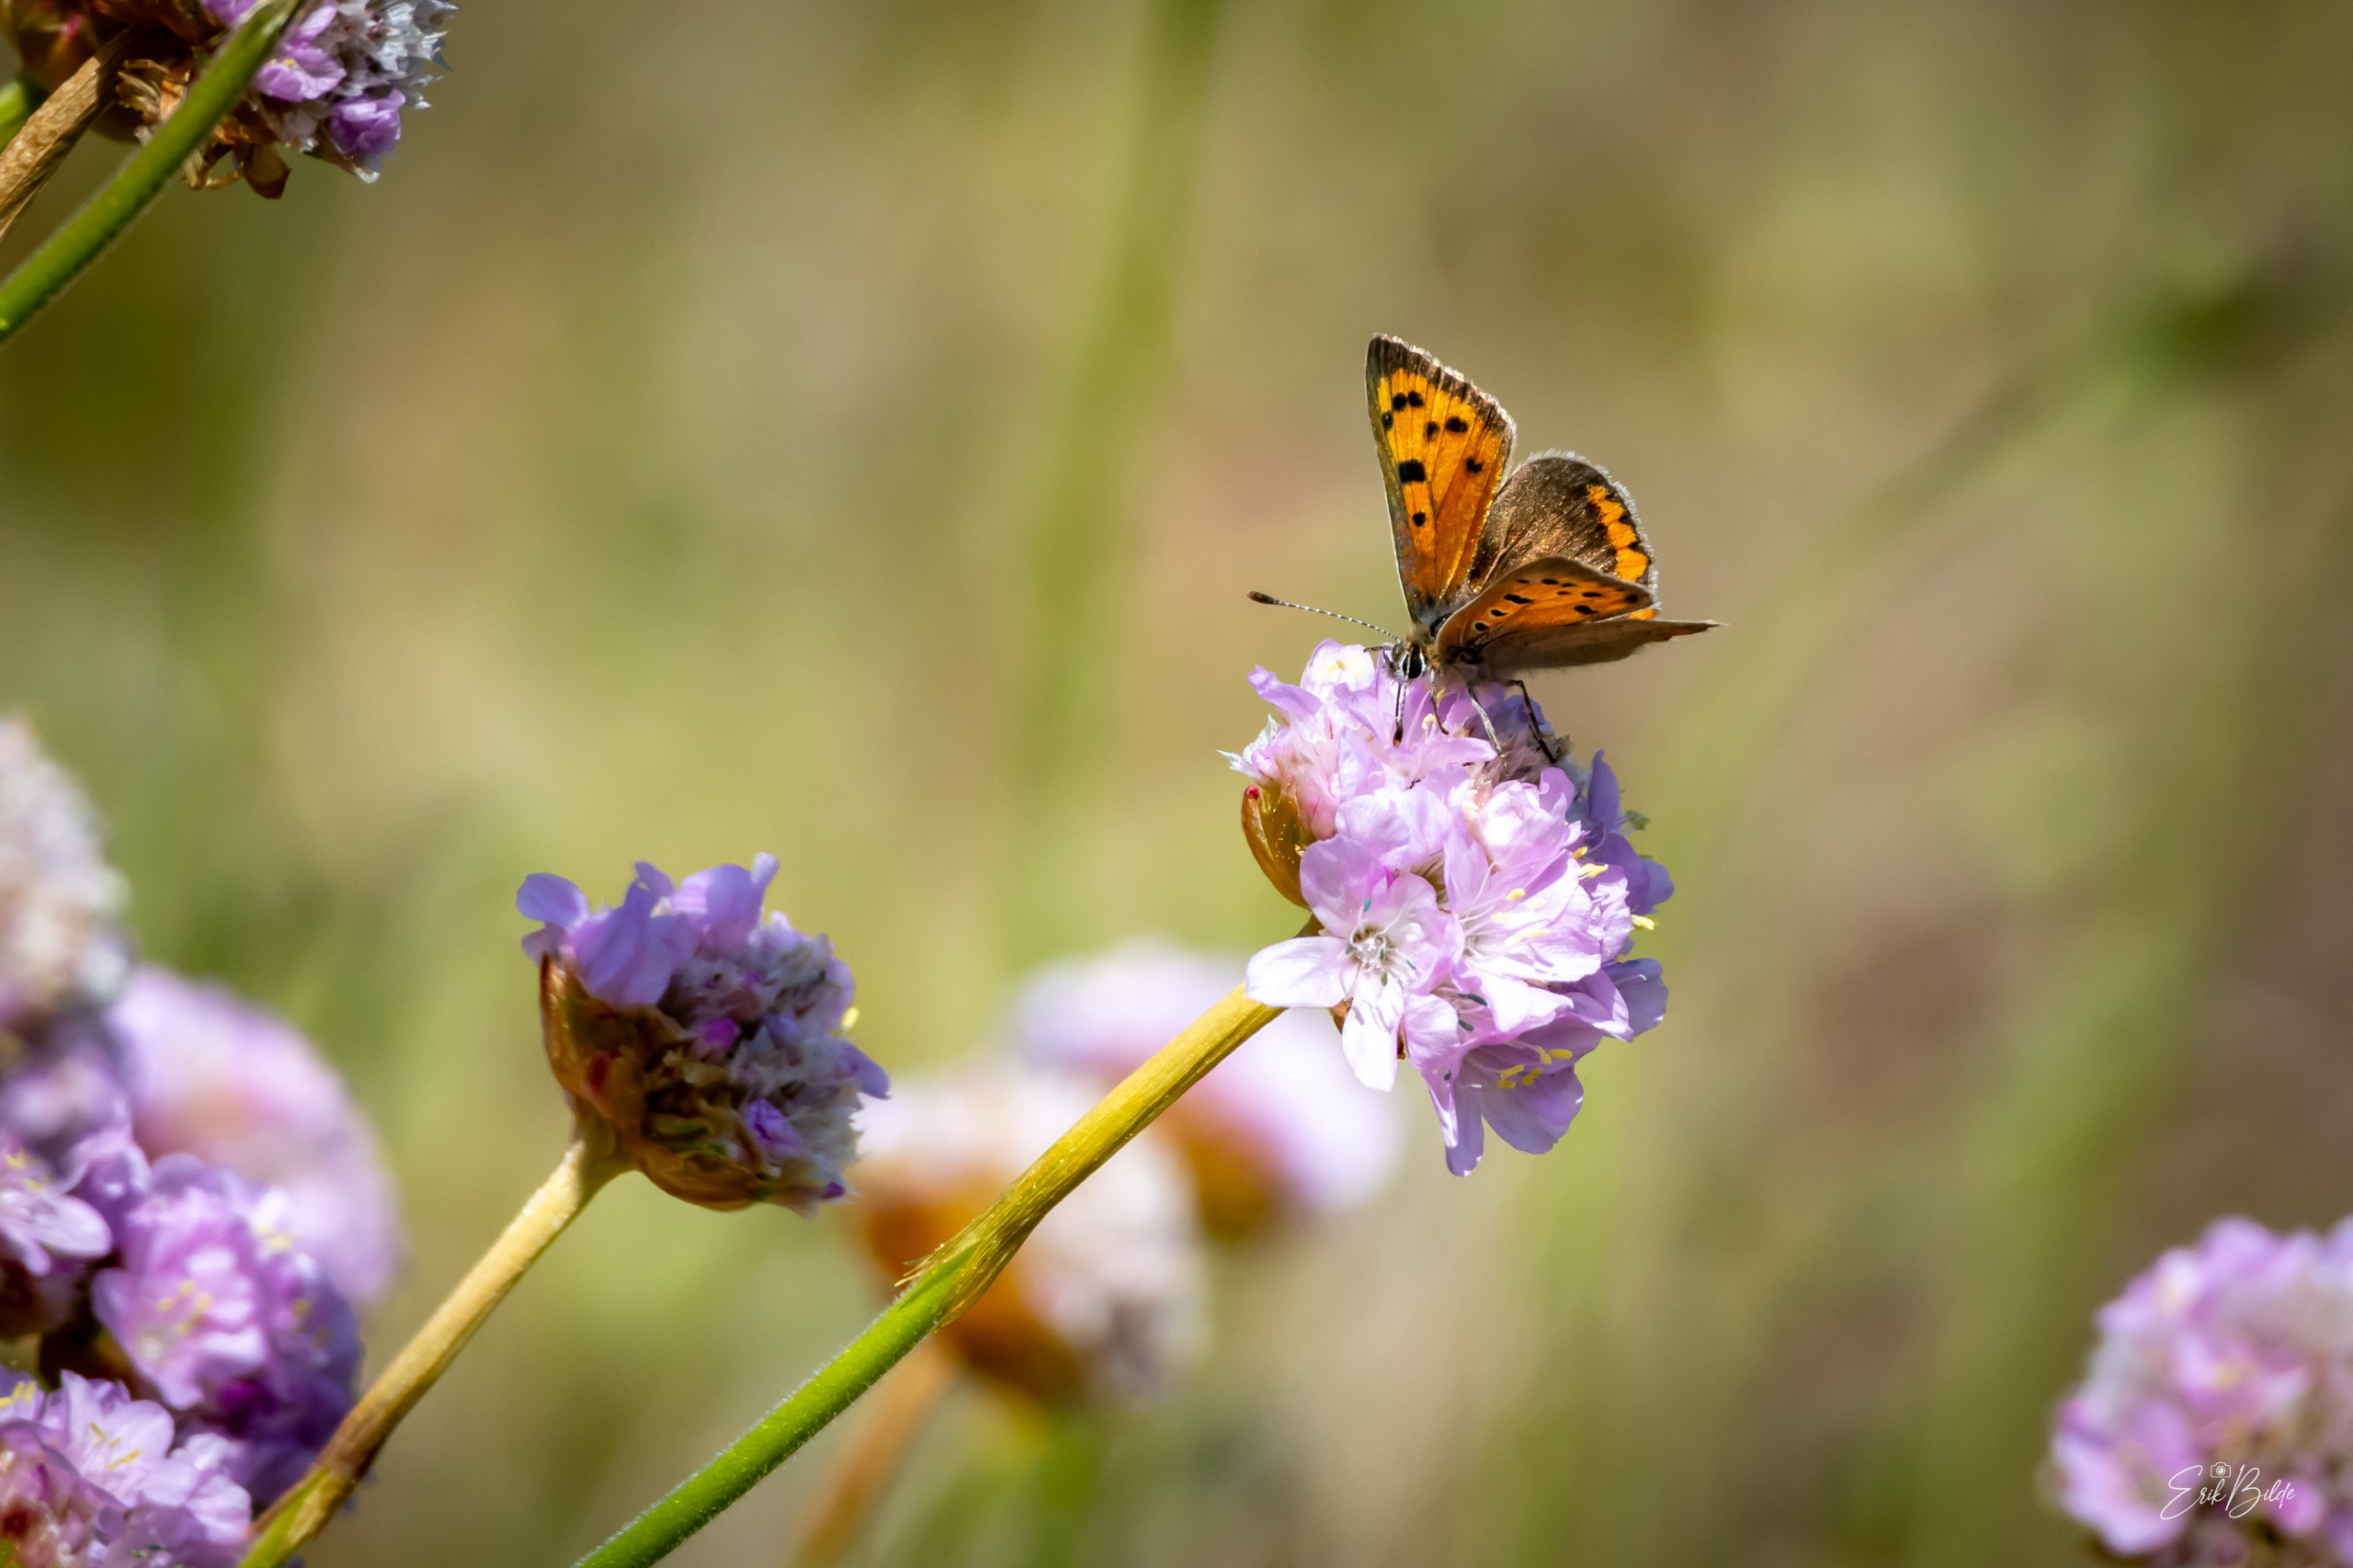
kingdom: Animalia
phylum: Arthropoda
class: Insecta
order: Lepidoptera
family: Lycaenidae
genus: Lycaena
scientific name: Lycaena phlaeas
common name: Lille ildfugl
